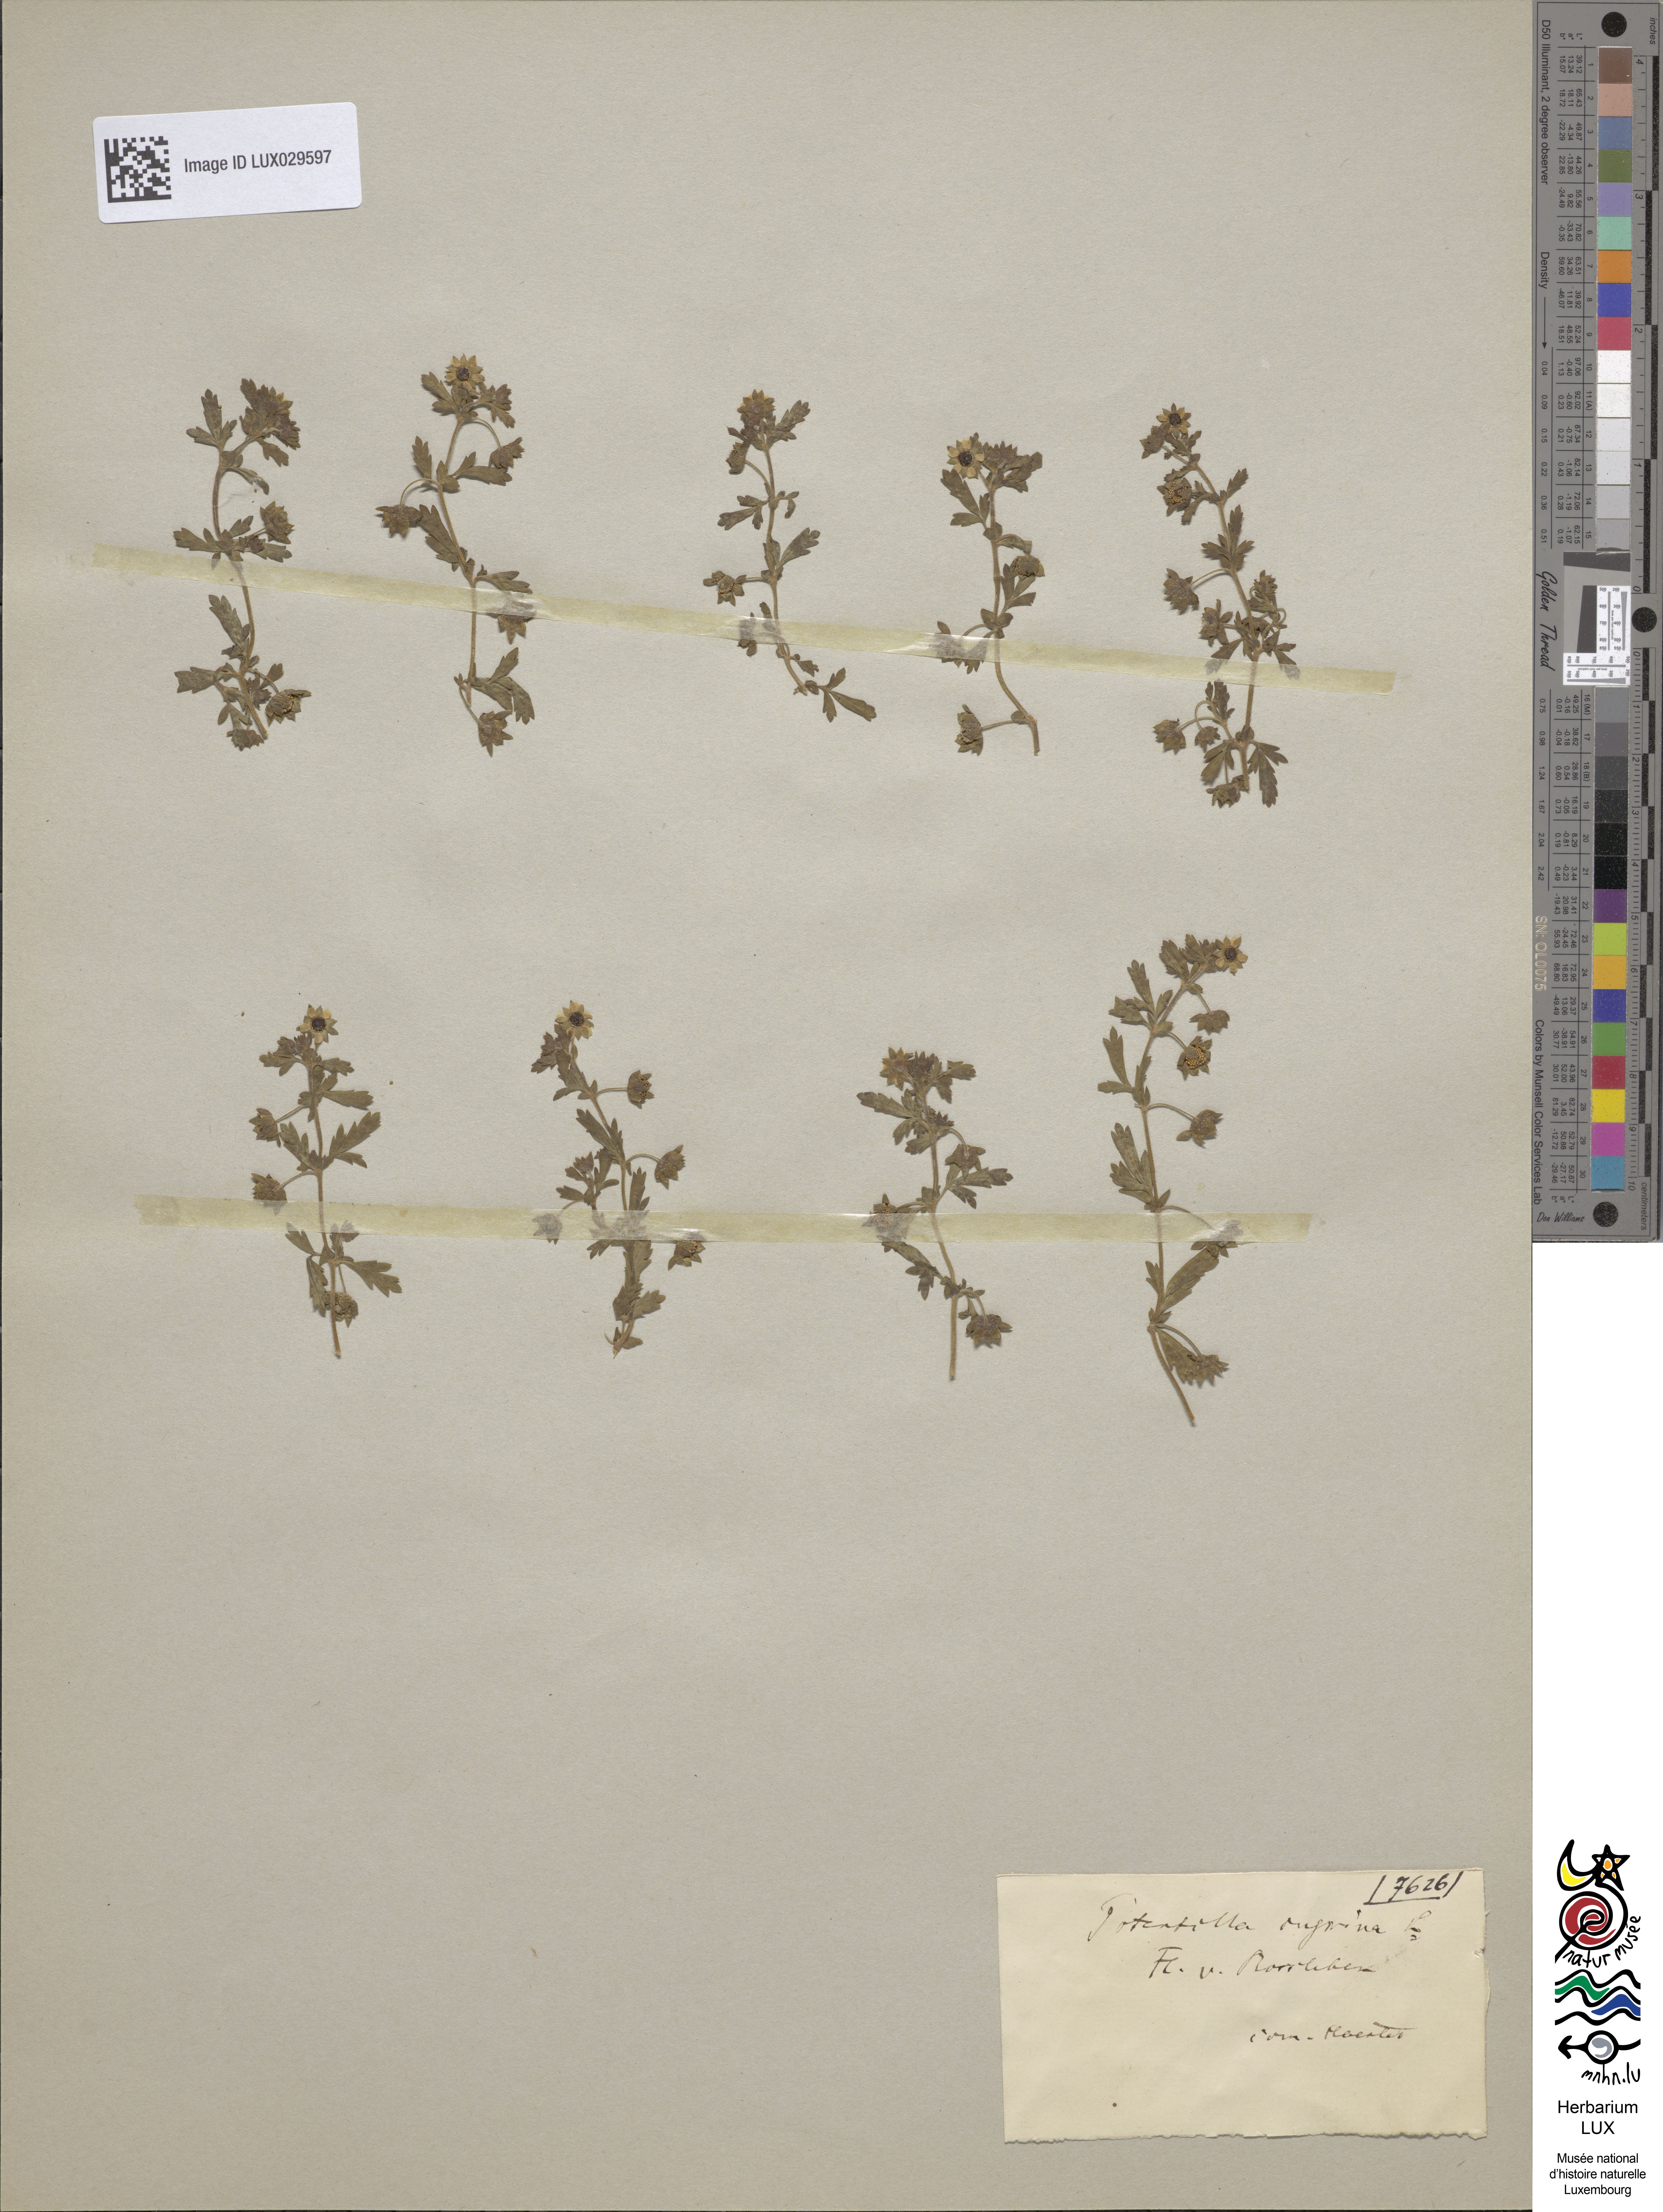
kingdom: Plantae
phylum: Tracheophyta
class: Magnoliopsida
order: Rosales
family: Rosaceae
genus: Potentilla
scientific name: Potentilla supina
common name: Prostrate cinquefoil
